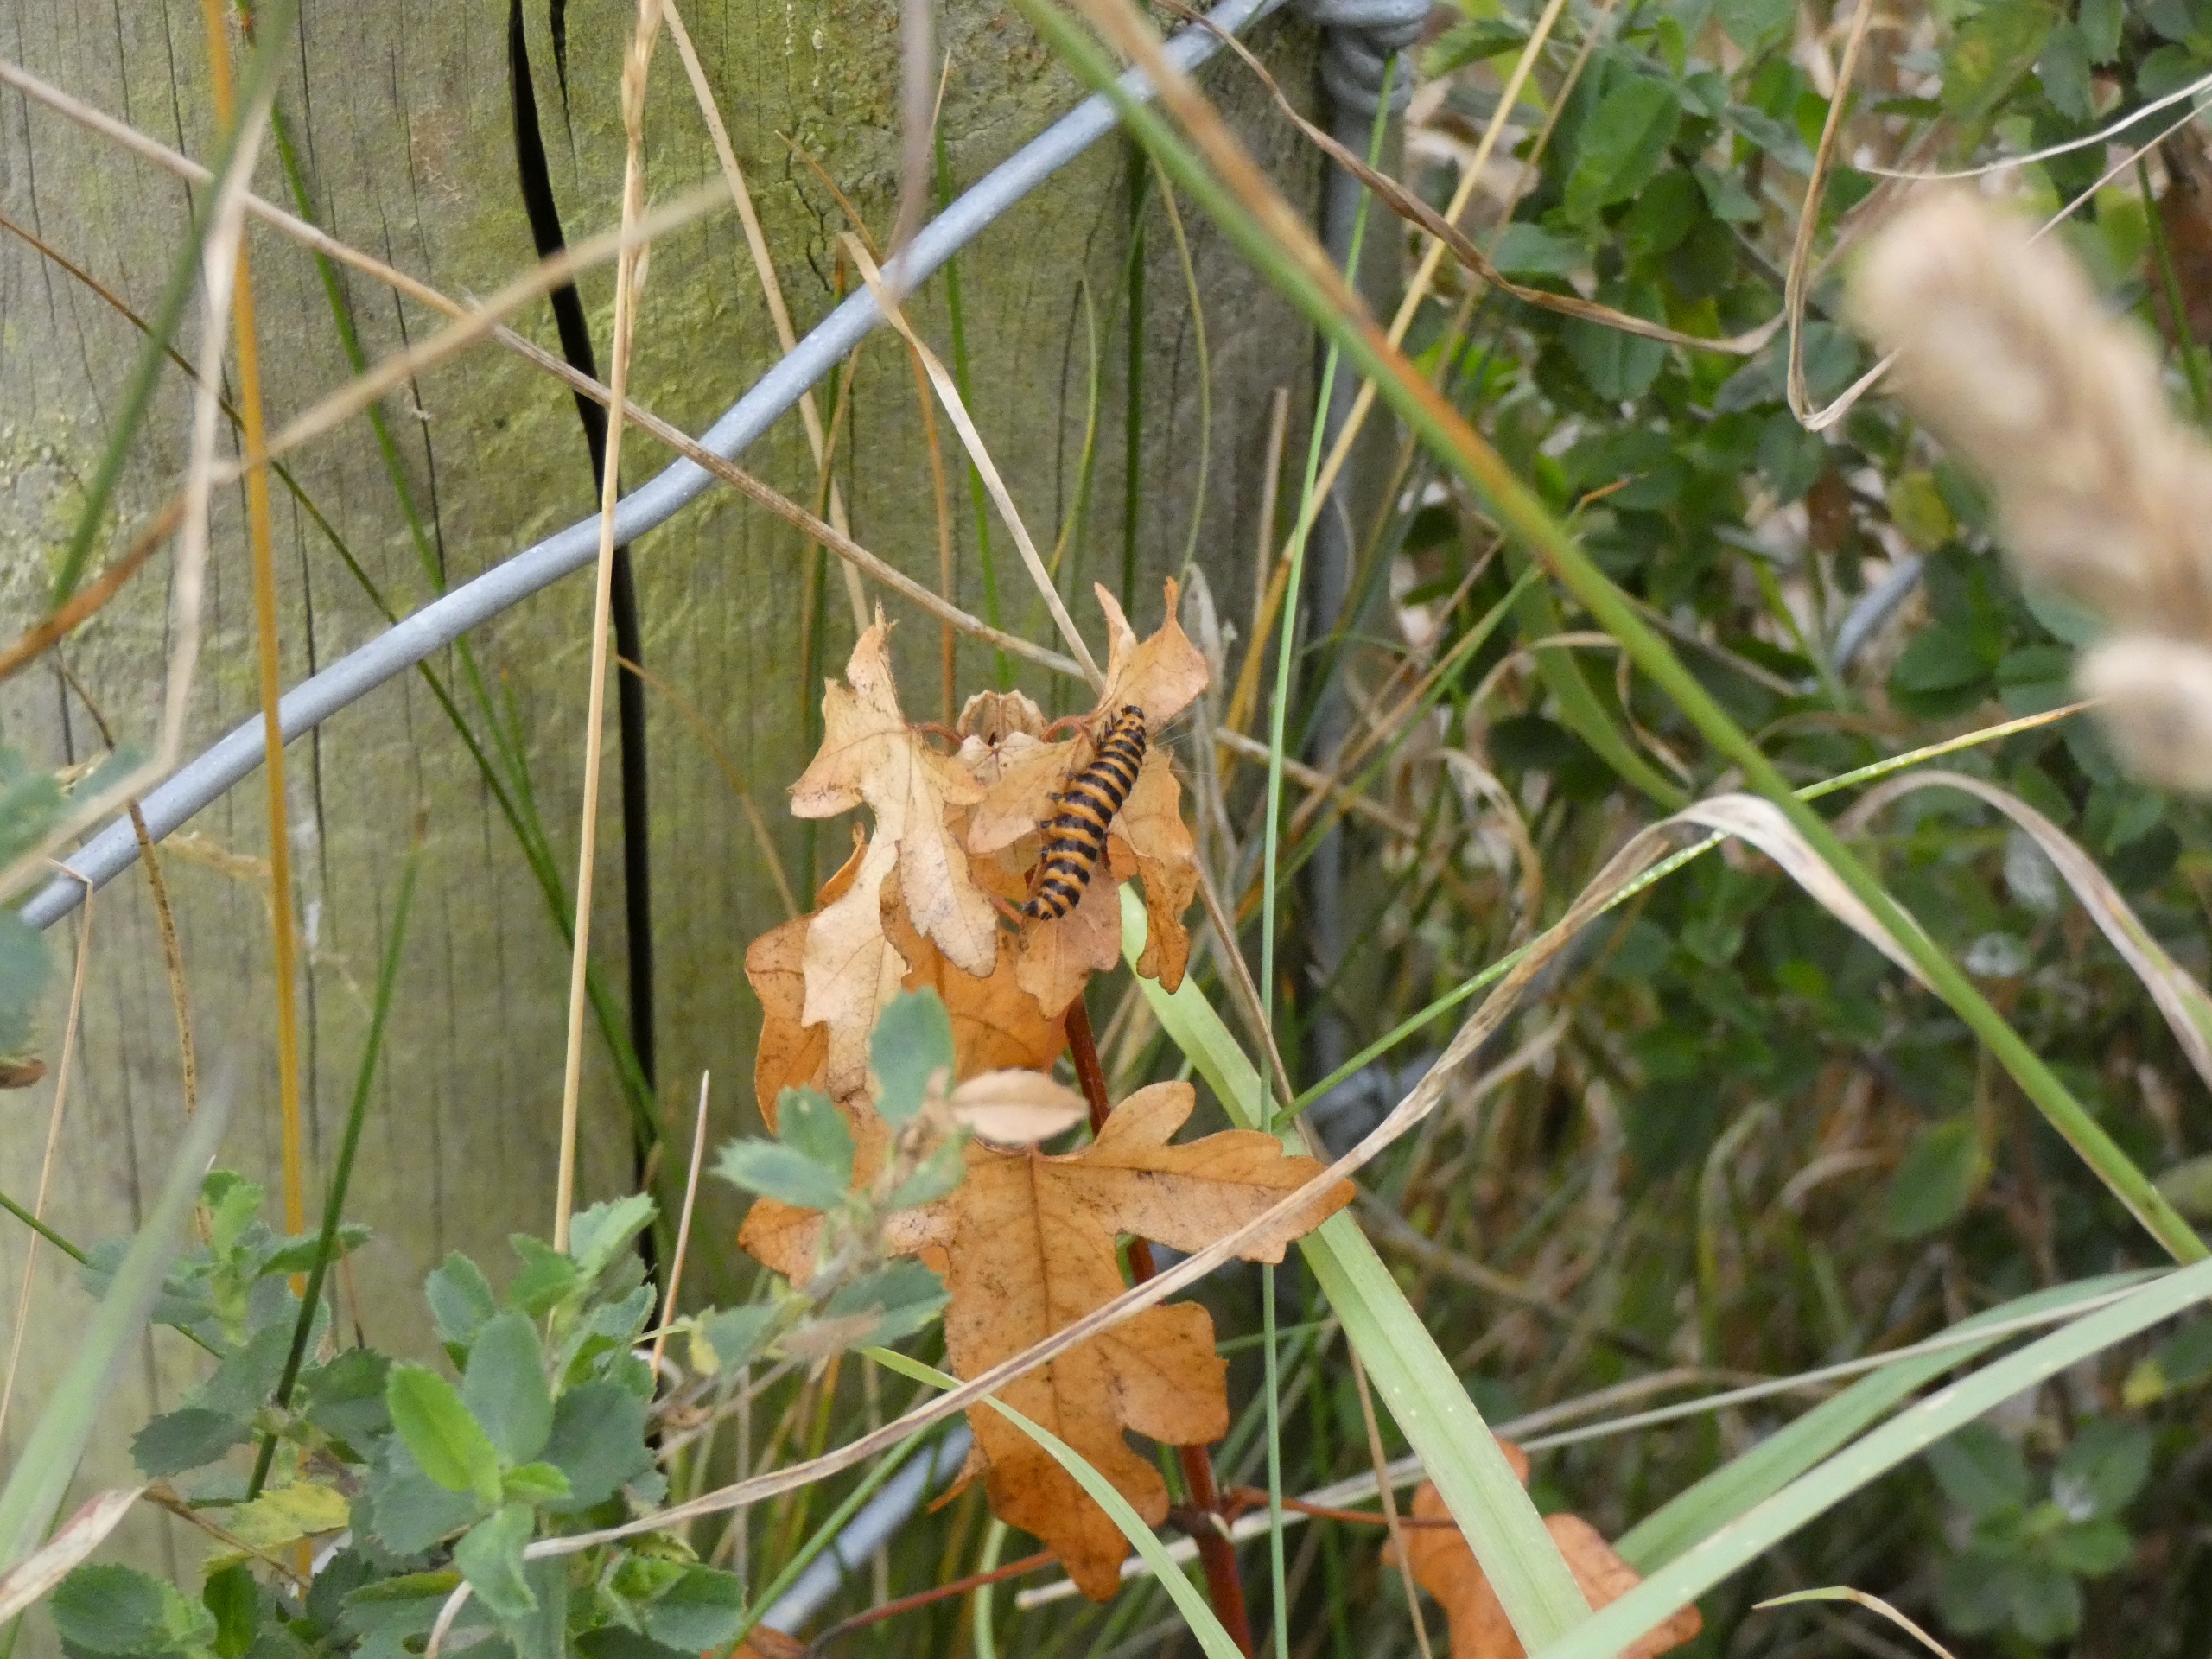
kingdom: Animalia
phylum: Arthropoda
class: Insecta
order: Lepidoptera
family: Erebidae
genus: Tyria
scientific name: Tyria jacobaeae
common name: Blodplet
